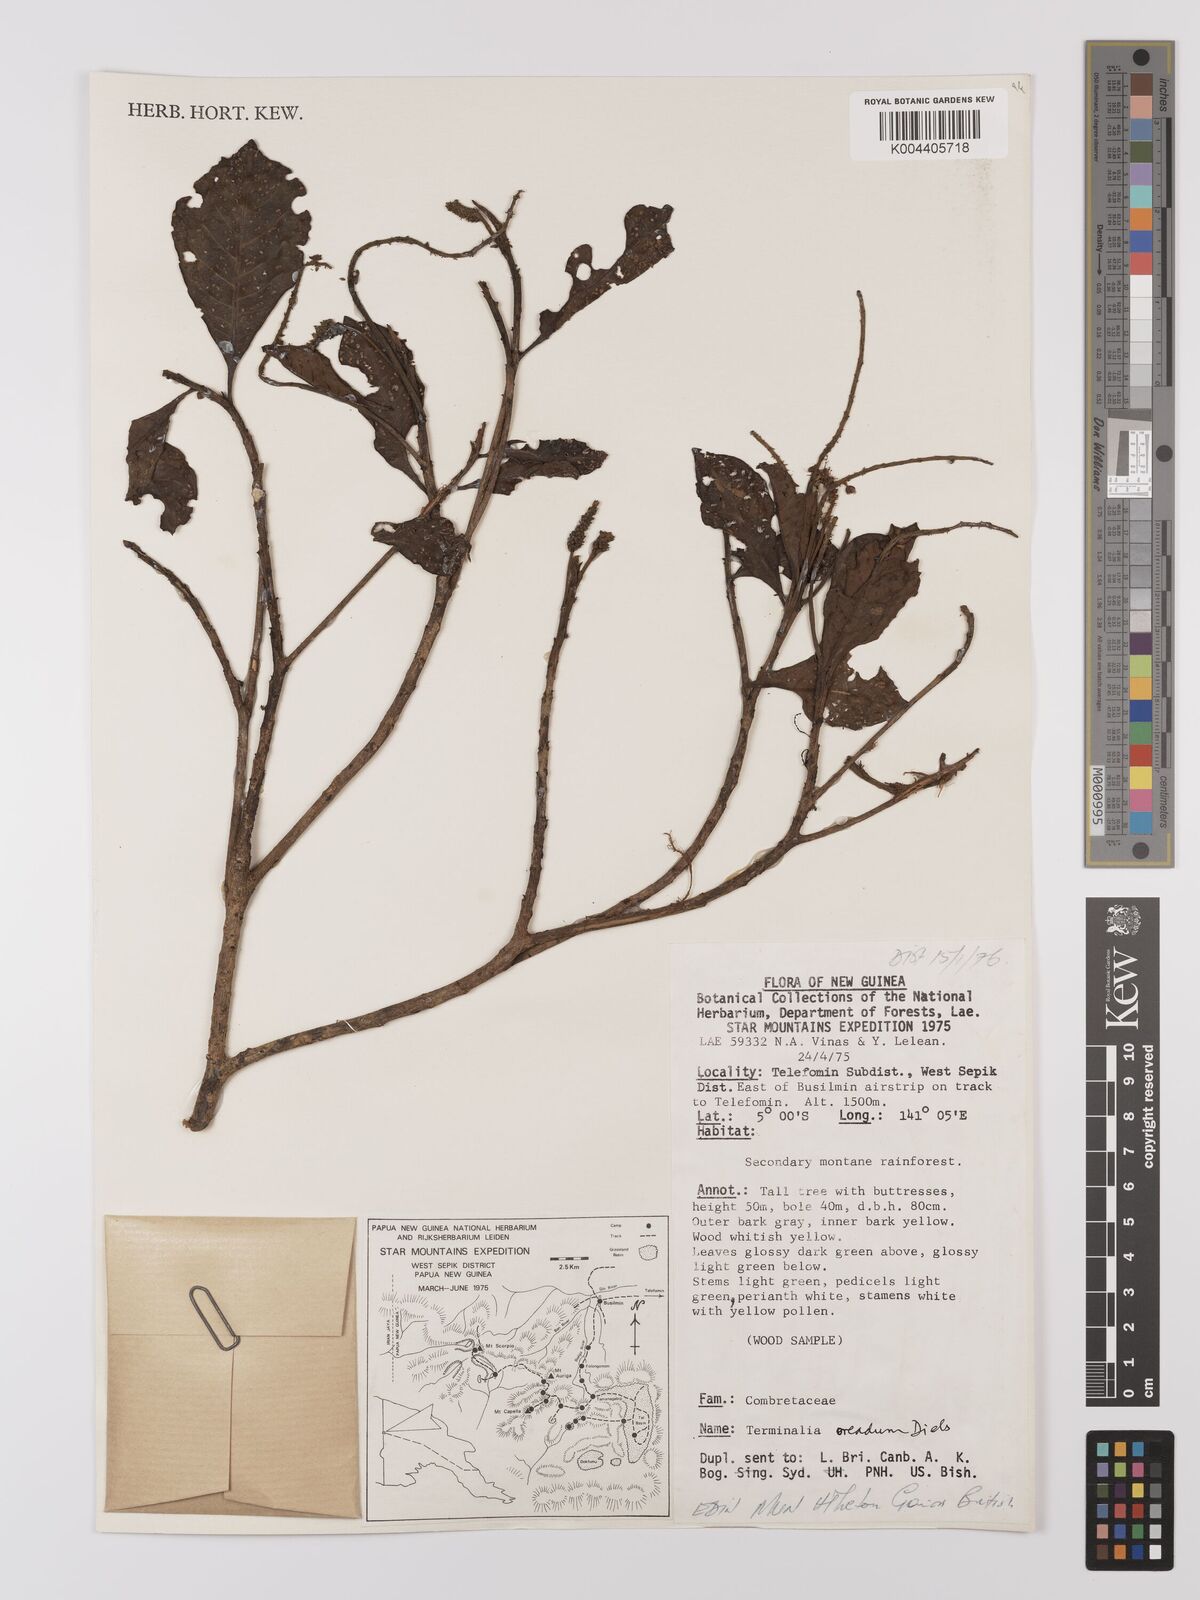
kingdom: Plantae
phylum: Tracheophyta
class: Magnoliopsida
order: Myrtales
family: Combretaceae
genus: Terminalia
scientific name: Terminalia oreadum
